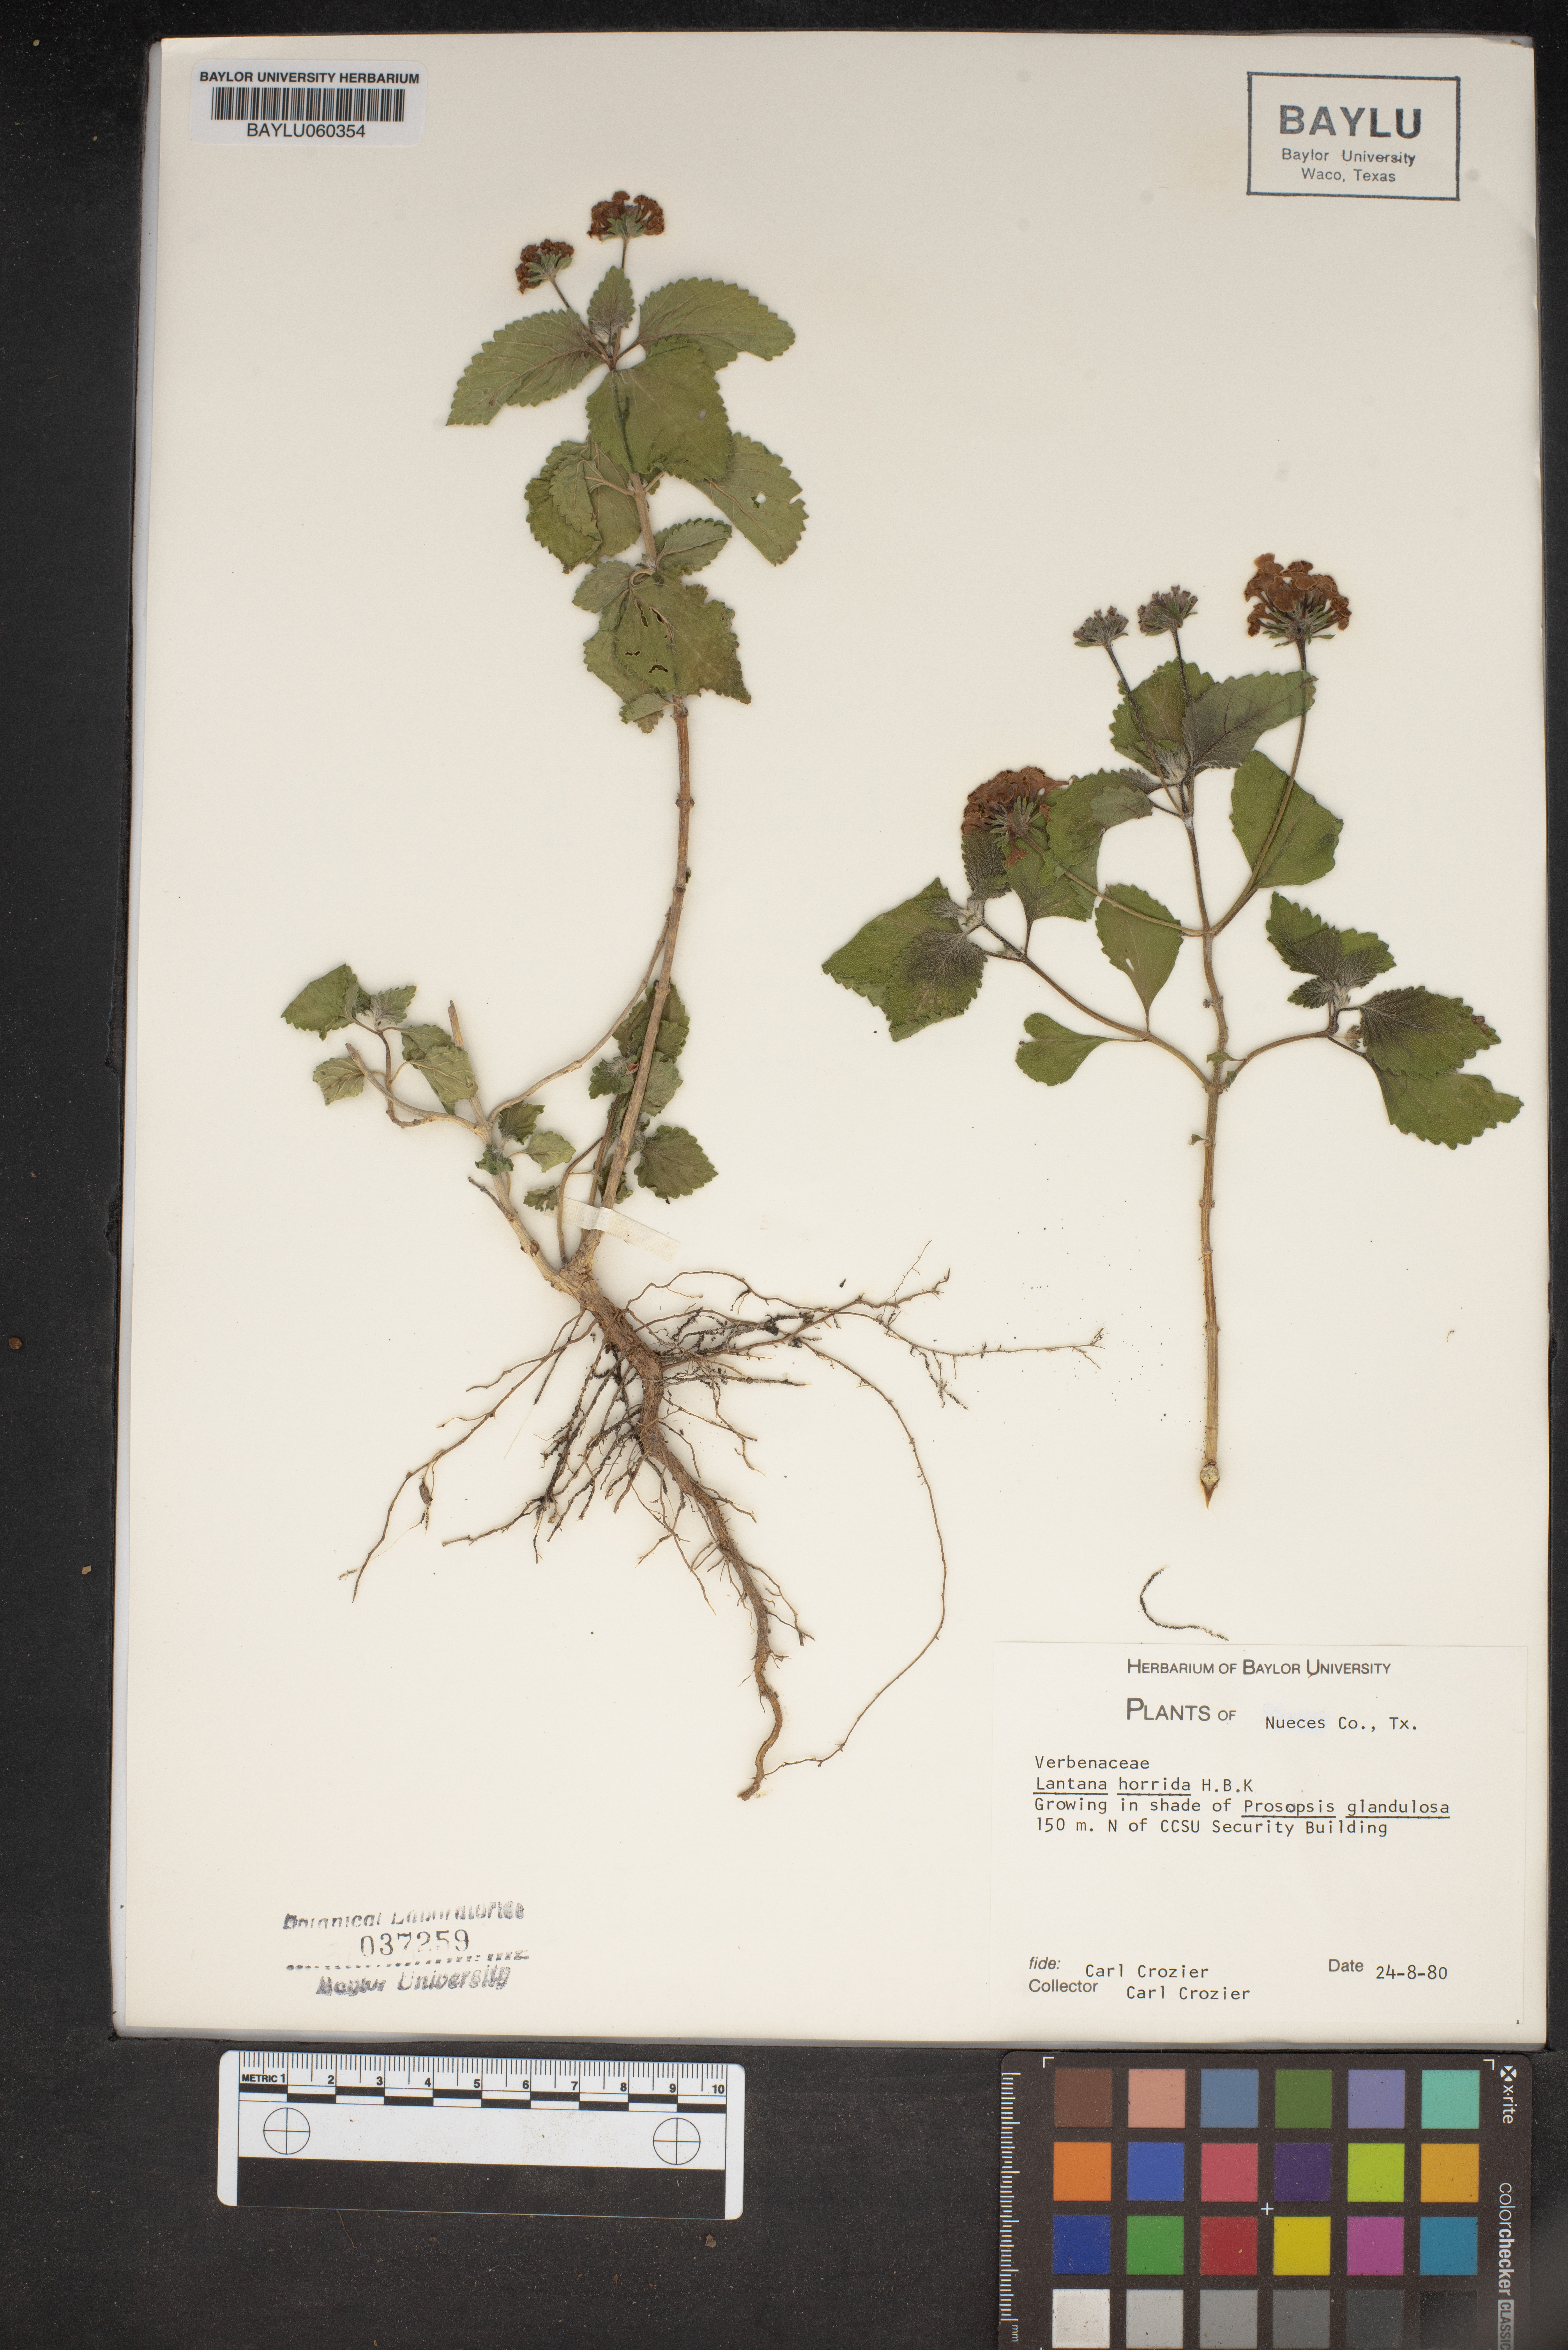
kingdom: Plantae
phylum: Tracheophyta
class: Magnoliopsida
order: Lamiales
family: Verbenaceae
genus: Lantana
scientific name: Lantana horrida
